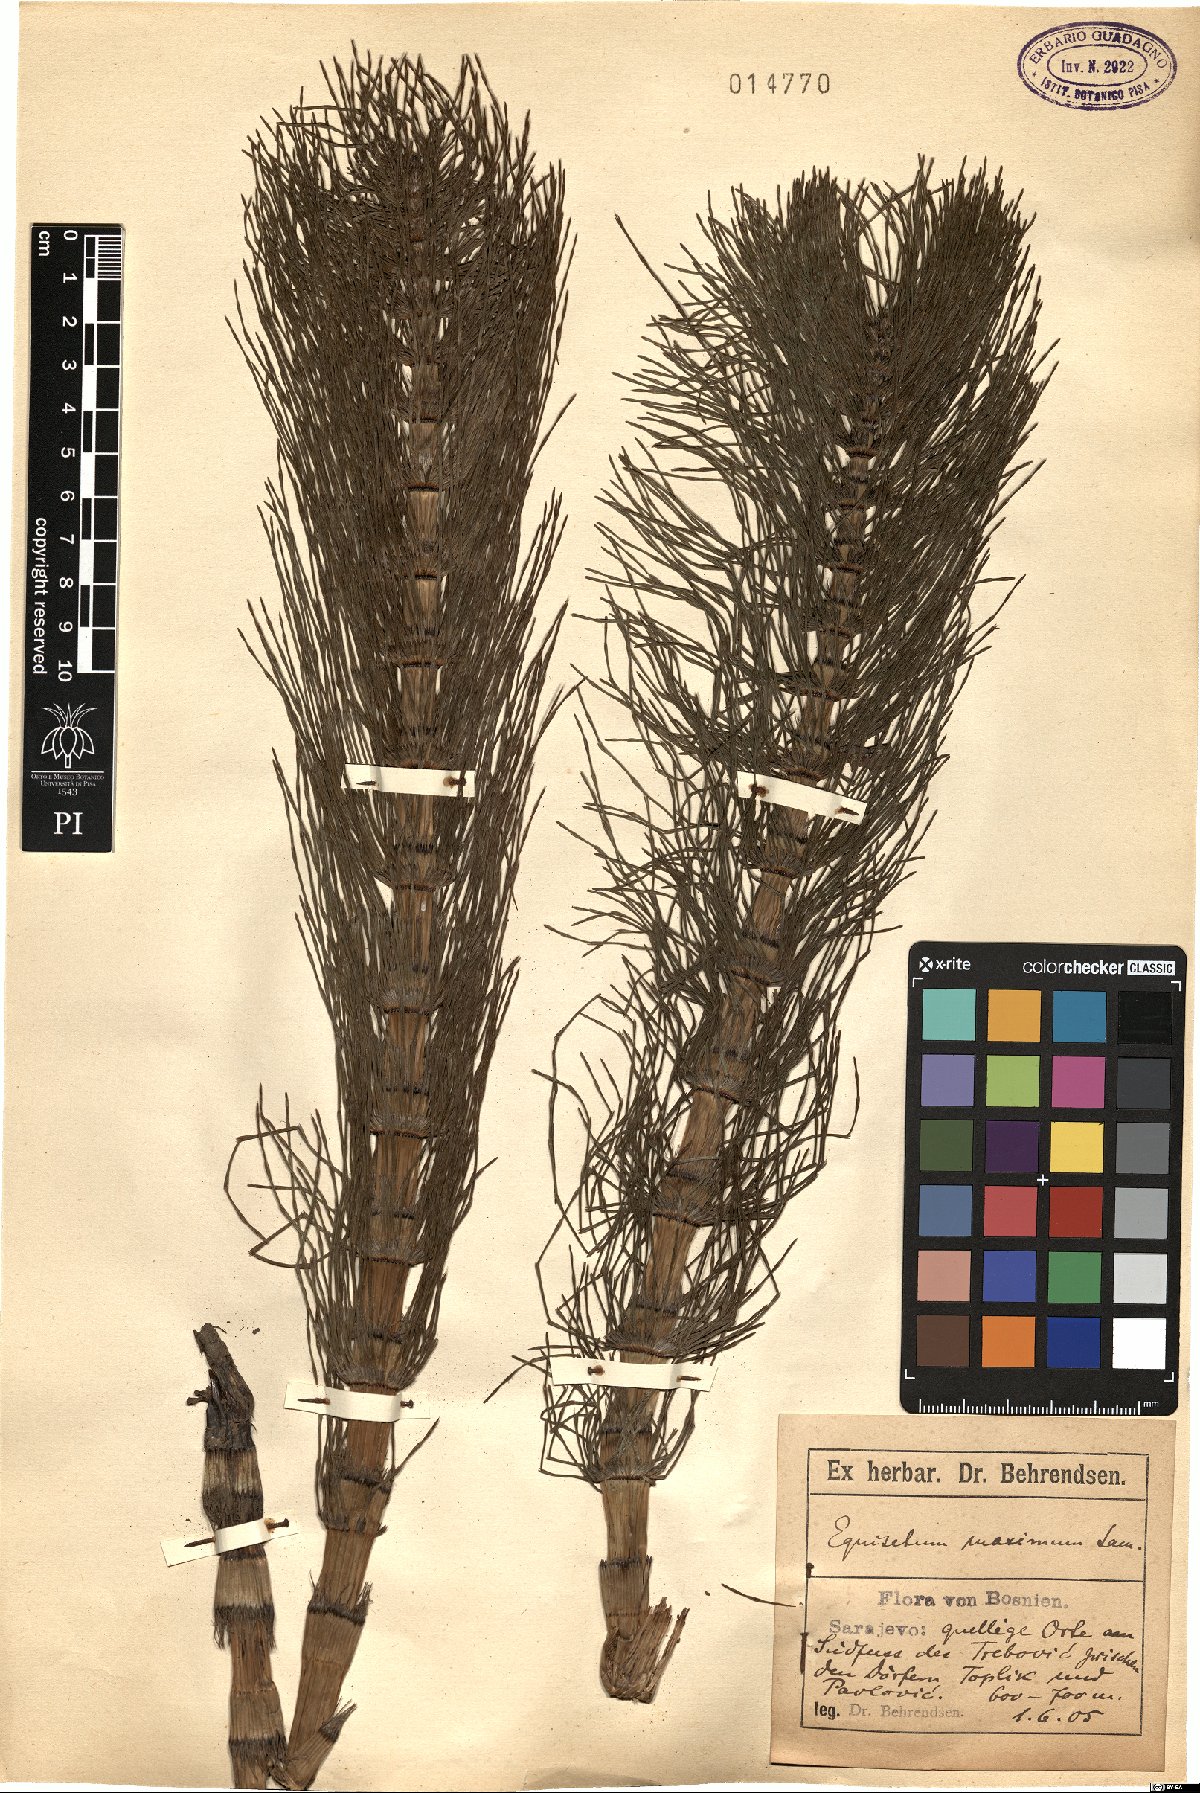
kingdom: Plantae
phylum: Tracheophyta
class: Polypodiopsida
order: Equisetales
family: Equisetaceae
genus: Equisetum
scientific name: Equisetum telmateia
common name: Great horsetail
